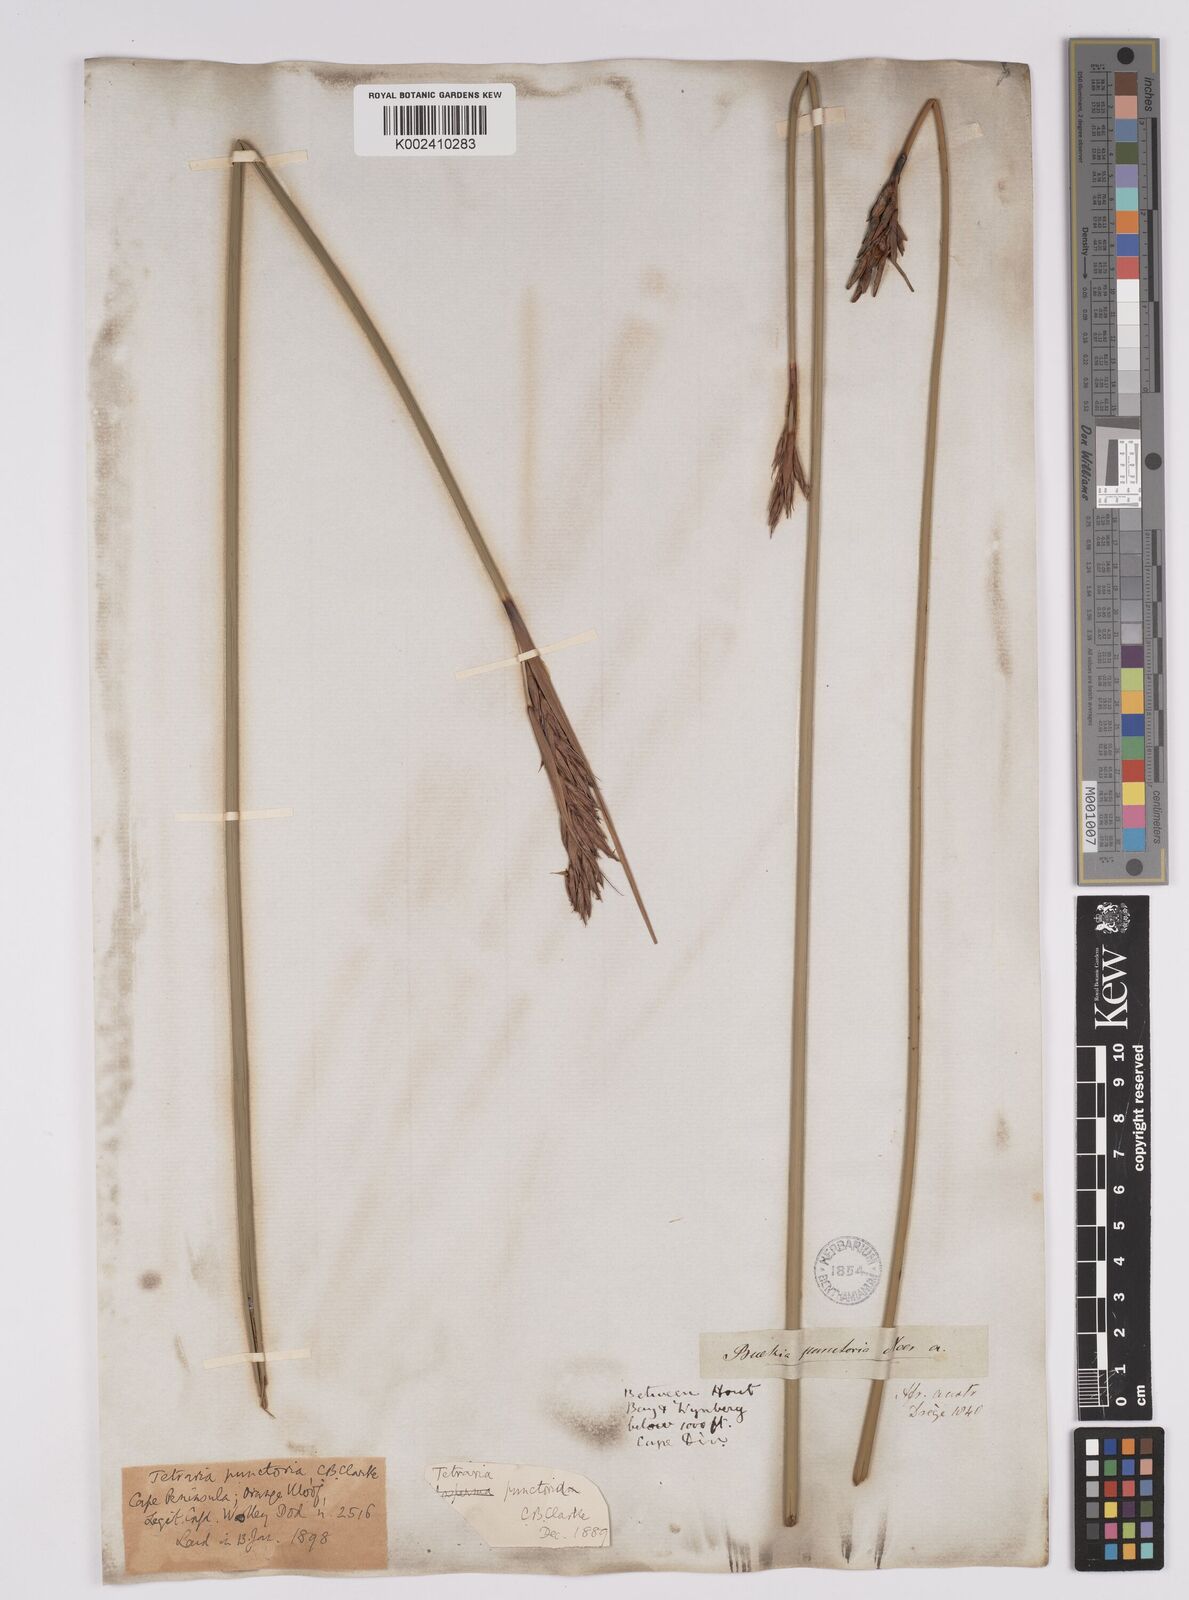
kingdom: Plantae
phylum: Tracheophyta
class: Liliopsida
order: Poales
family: Cyperaceae
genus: Neesenbeckia
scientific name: Neesenbeckia punctoria
